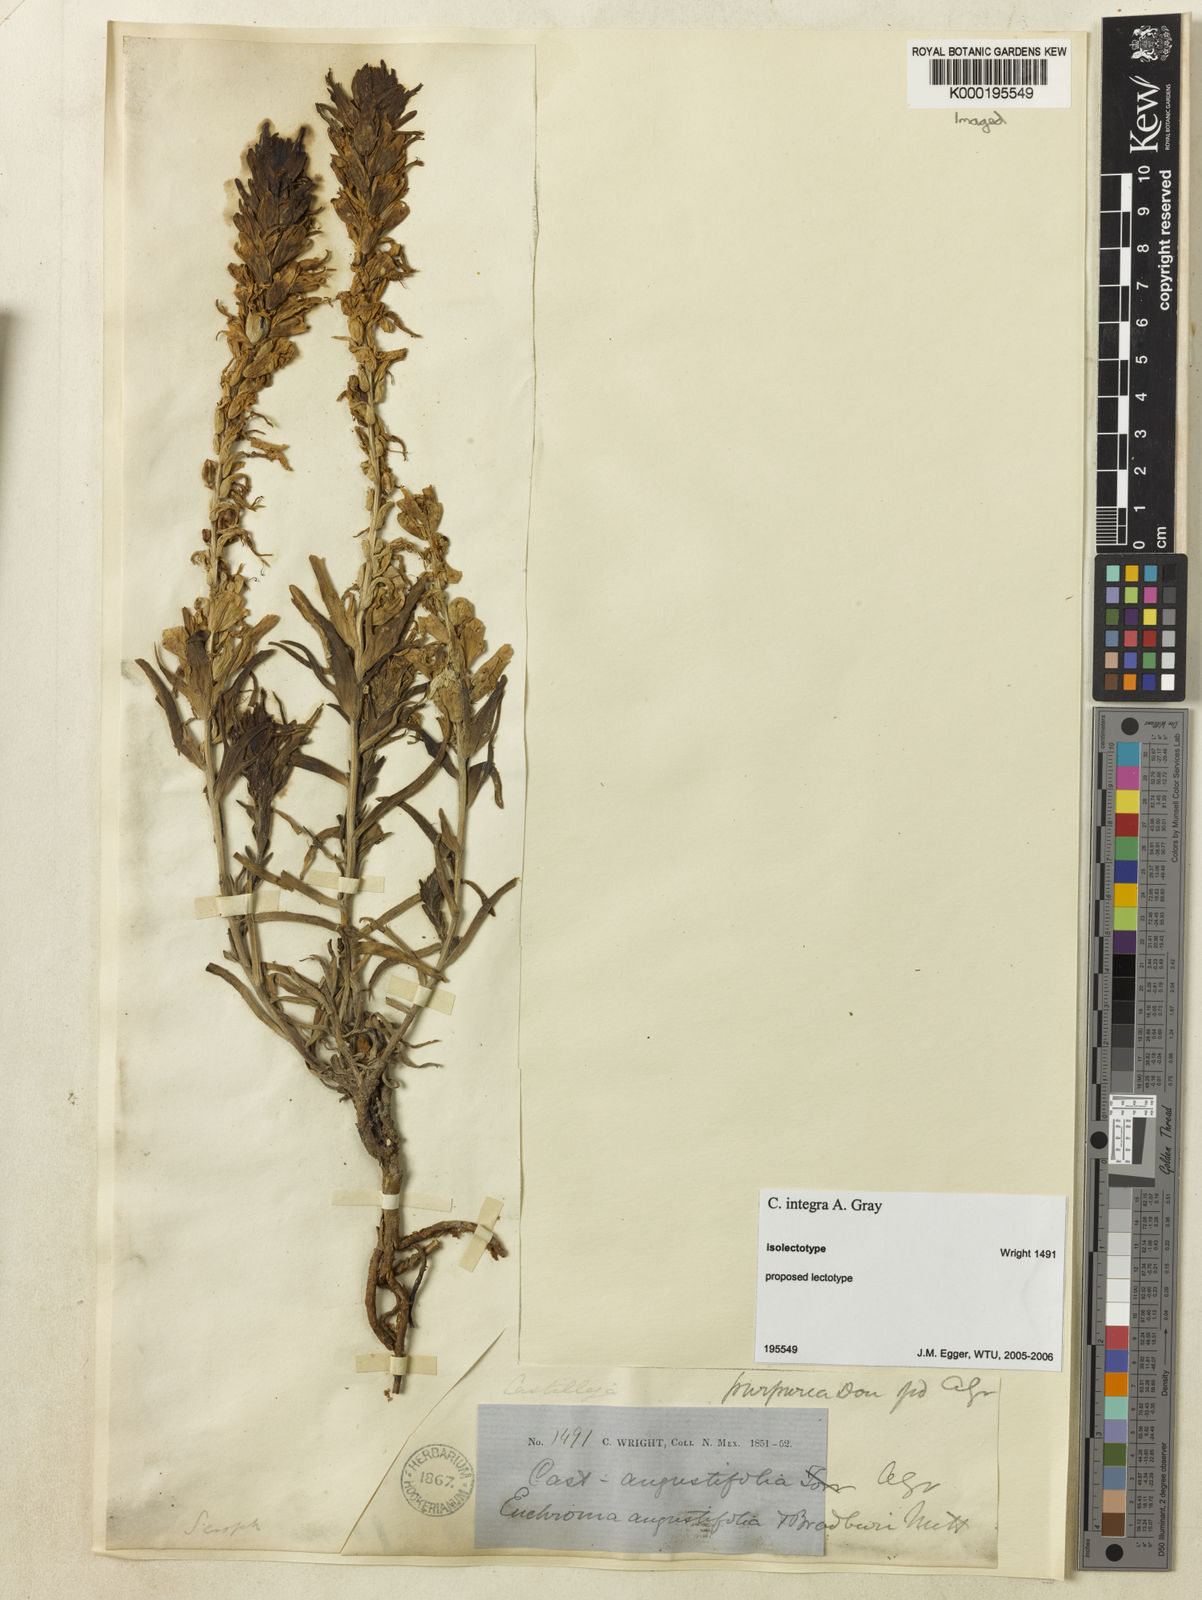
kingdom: Plantae
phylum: Tracheophyta
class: Magnoliopsida
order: Lamiales
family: Orobanchaceae
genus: Castilleja
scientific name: Castilleja integra
